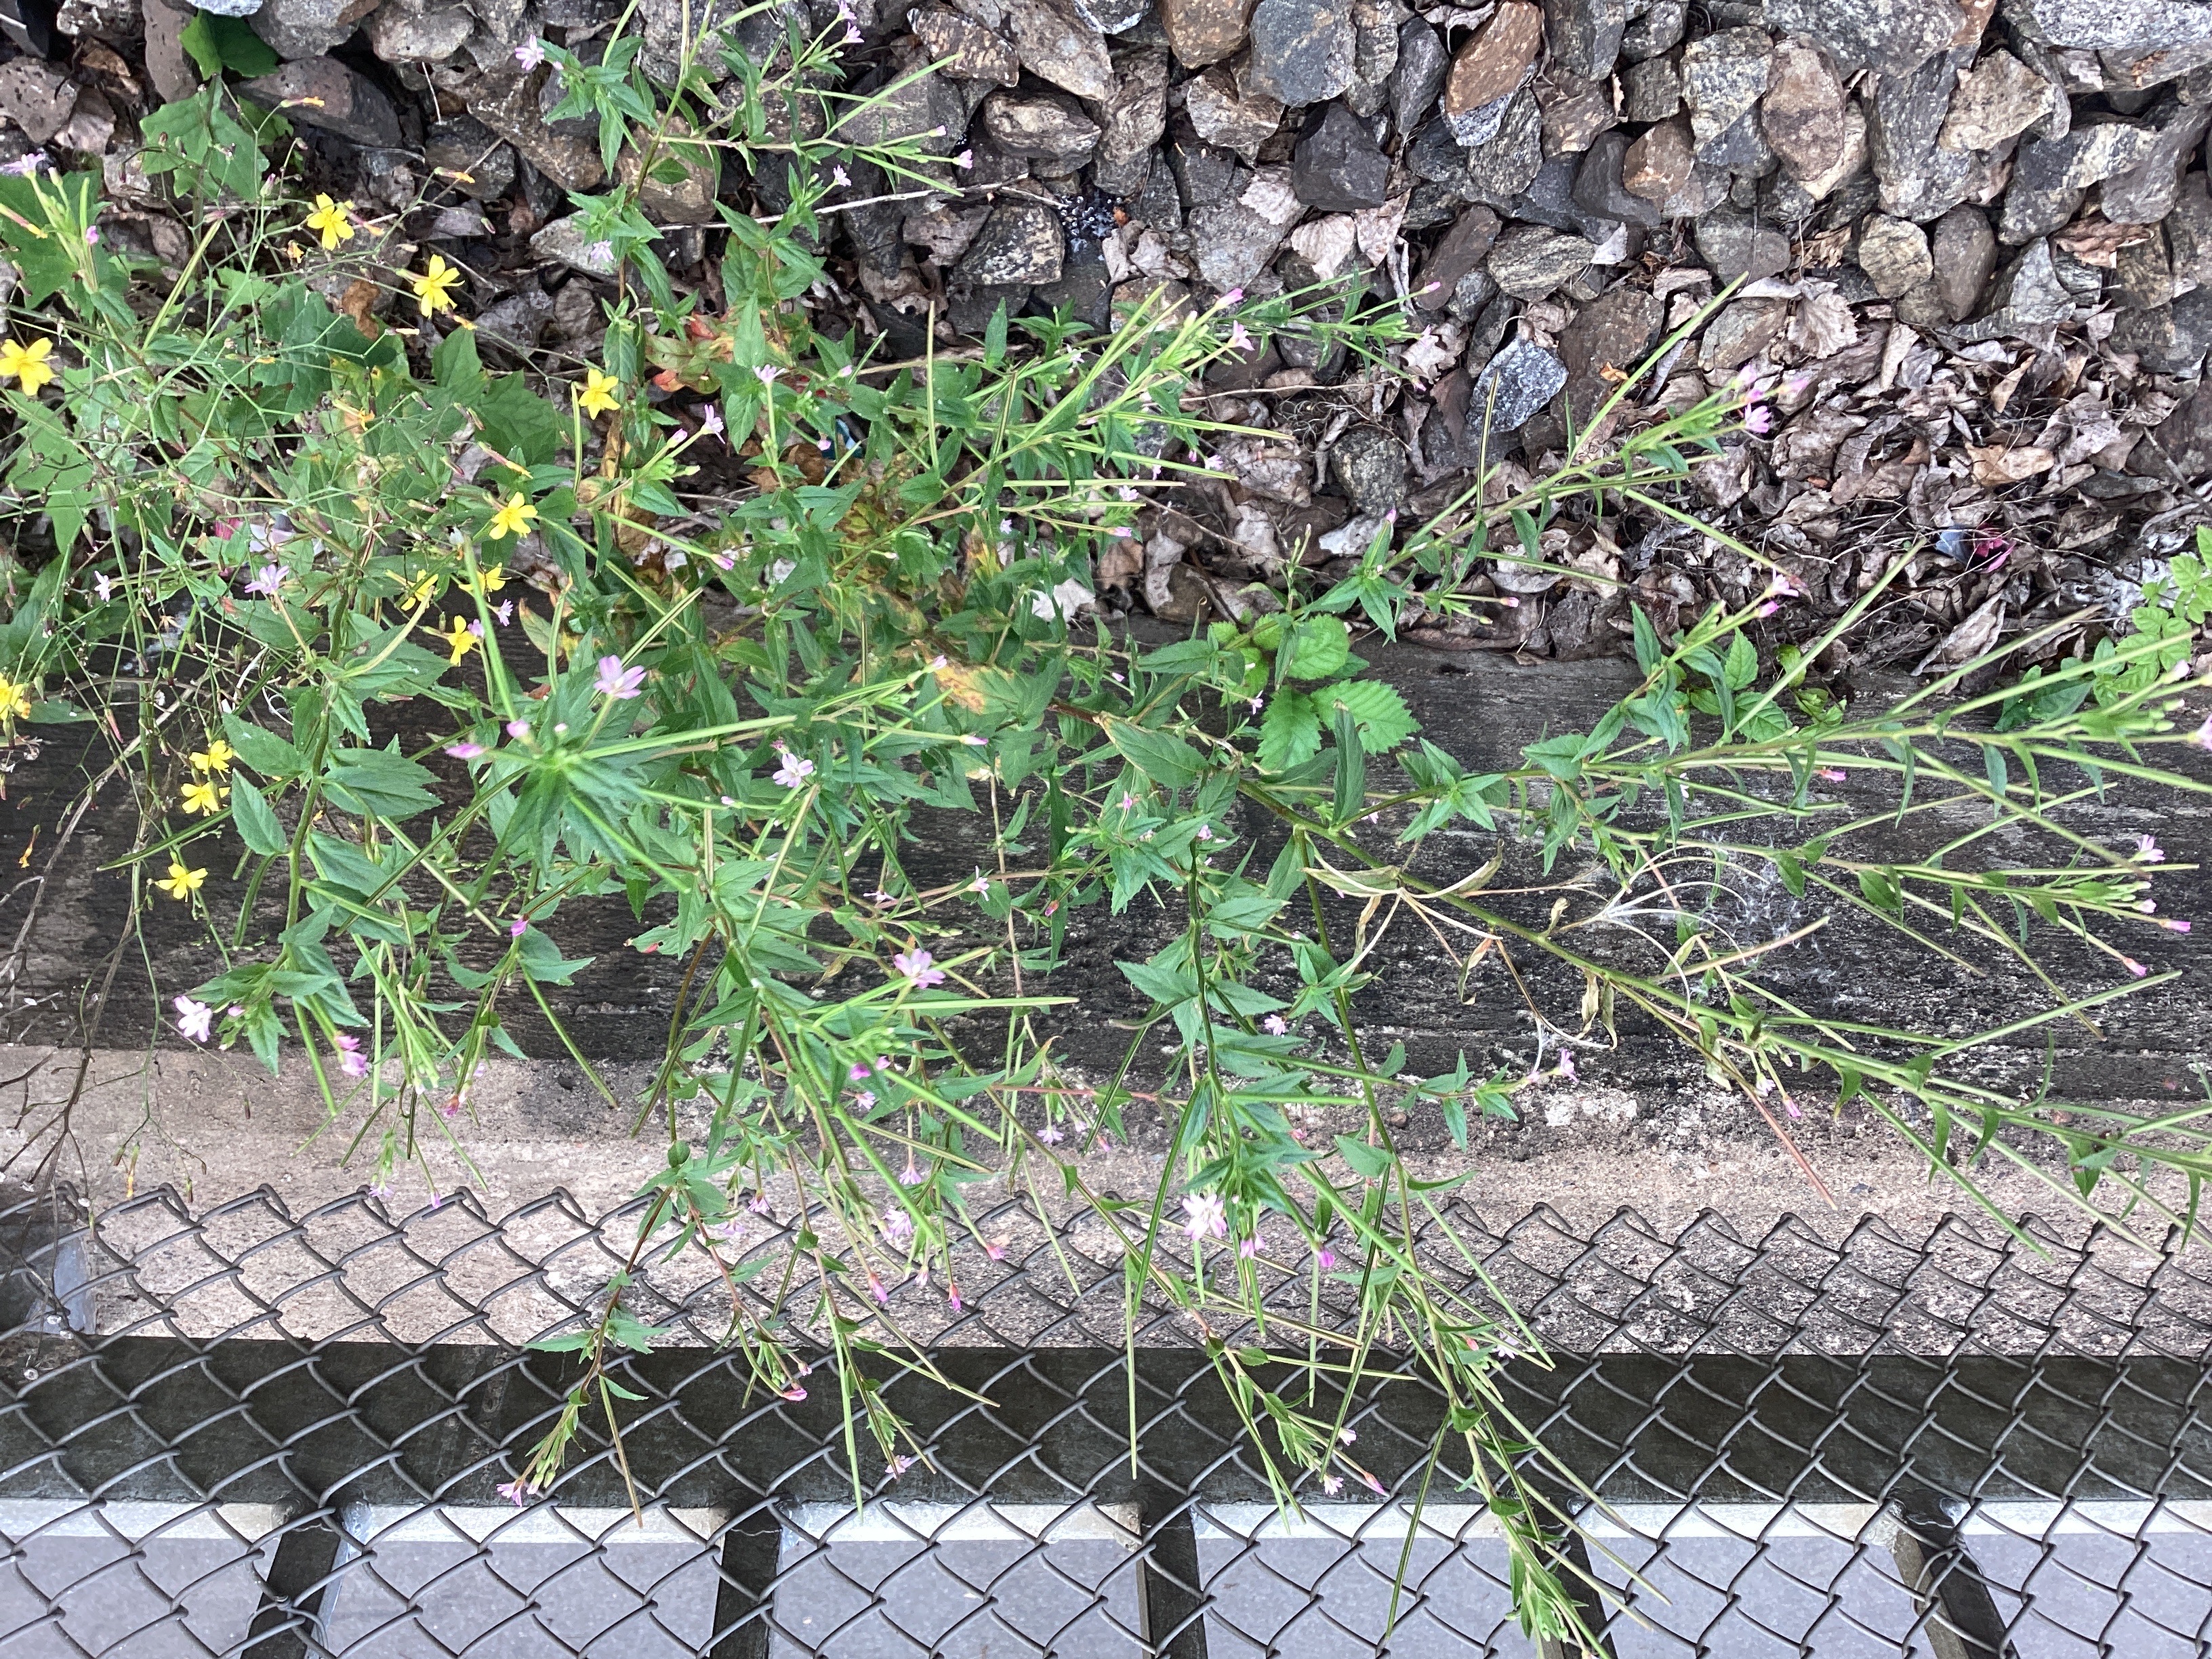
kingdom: Plantae
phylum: Tracheophyta
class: Magnoliopsida
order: Myrtales
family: Onagraceae
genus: Epilobium
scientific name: Epilobium ciliatum
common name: amerikamjølke
